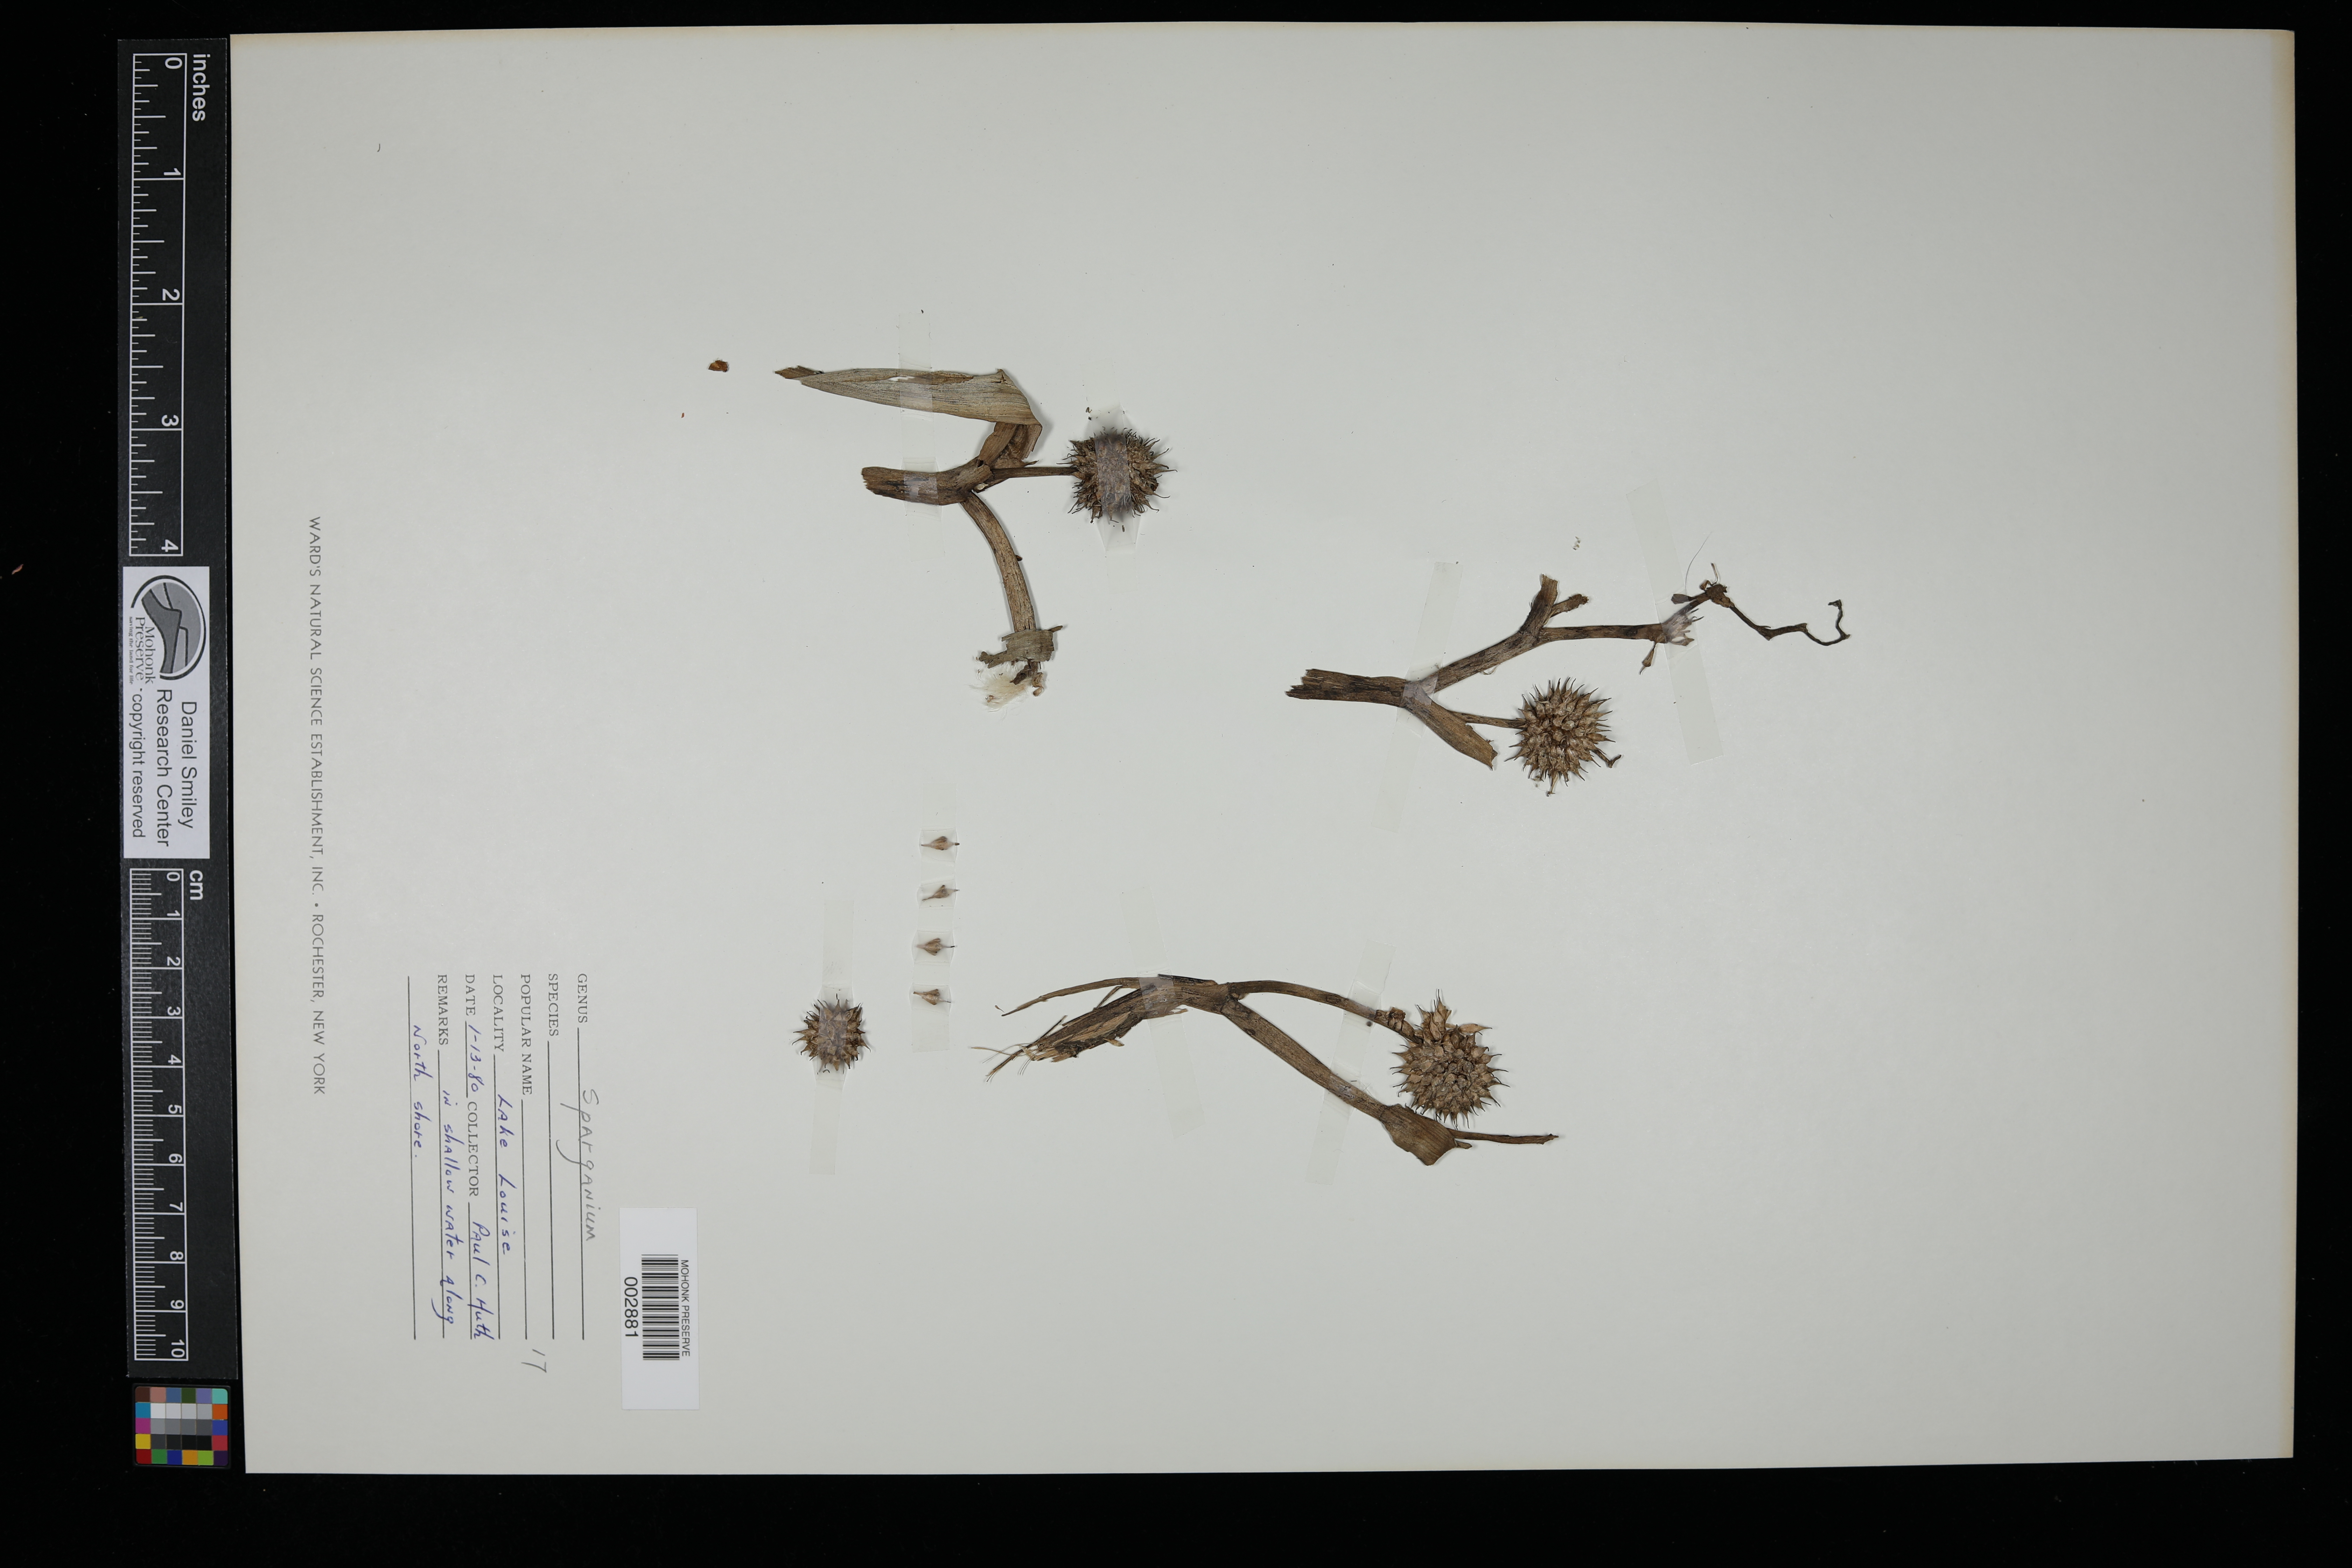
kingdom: Plantae
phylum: Tracheophyta
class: Liliopsida
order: Poales
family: Typhaceae
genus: Sparganium
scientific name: Sparganium
